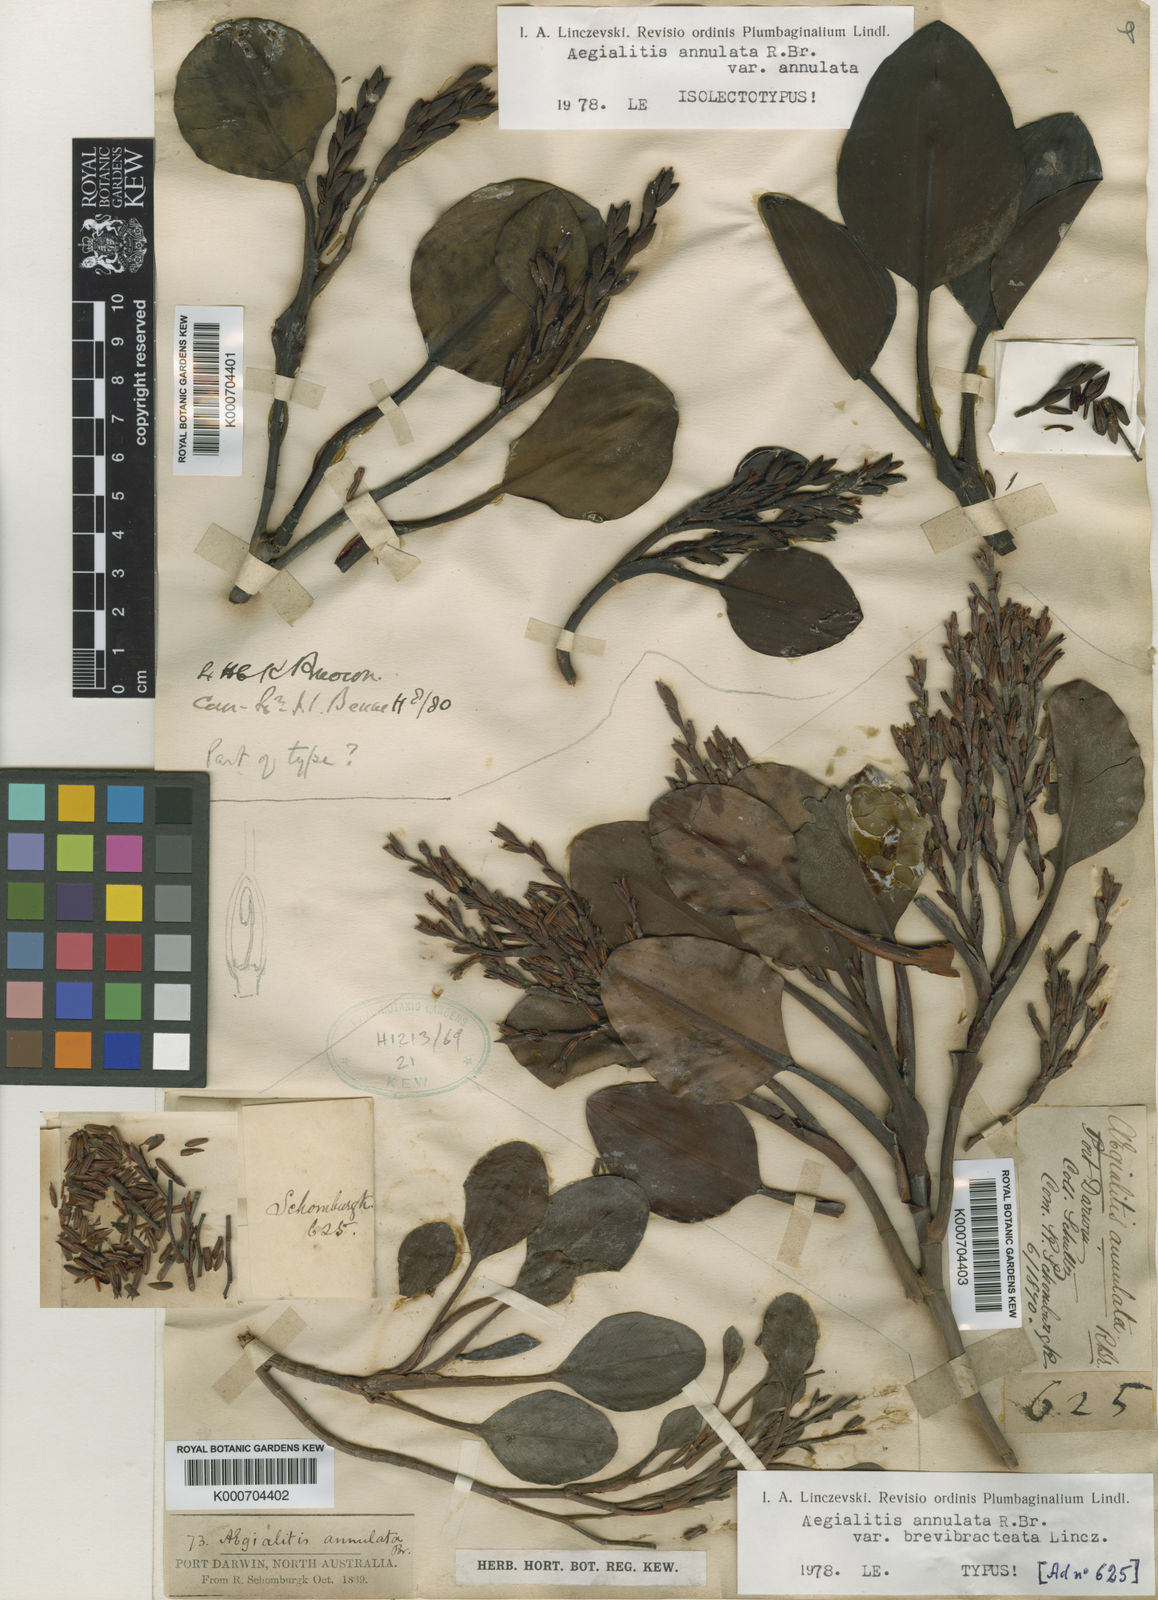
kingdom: Plantae
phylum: Tracheophyta
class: Magnoliopsida
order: Caryophyllales
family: Plumbaginaceae
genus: Aegialitis
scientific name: Aegialitis annulata
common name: Club mangrove
